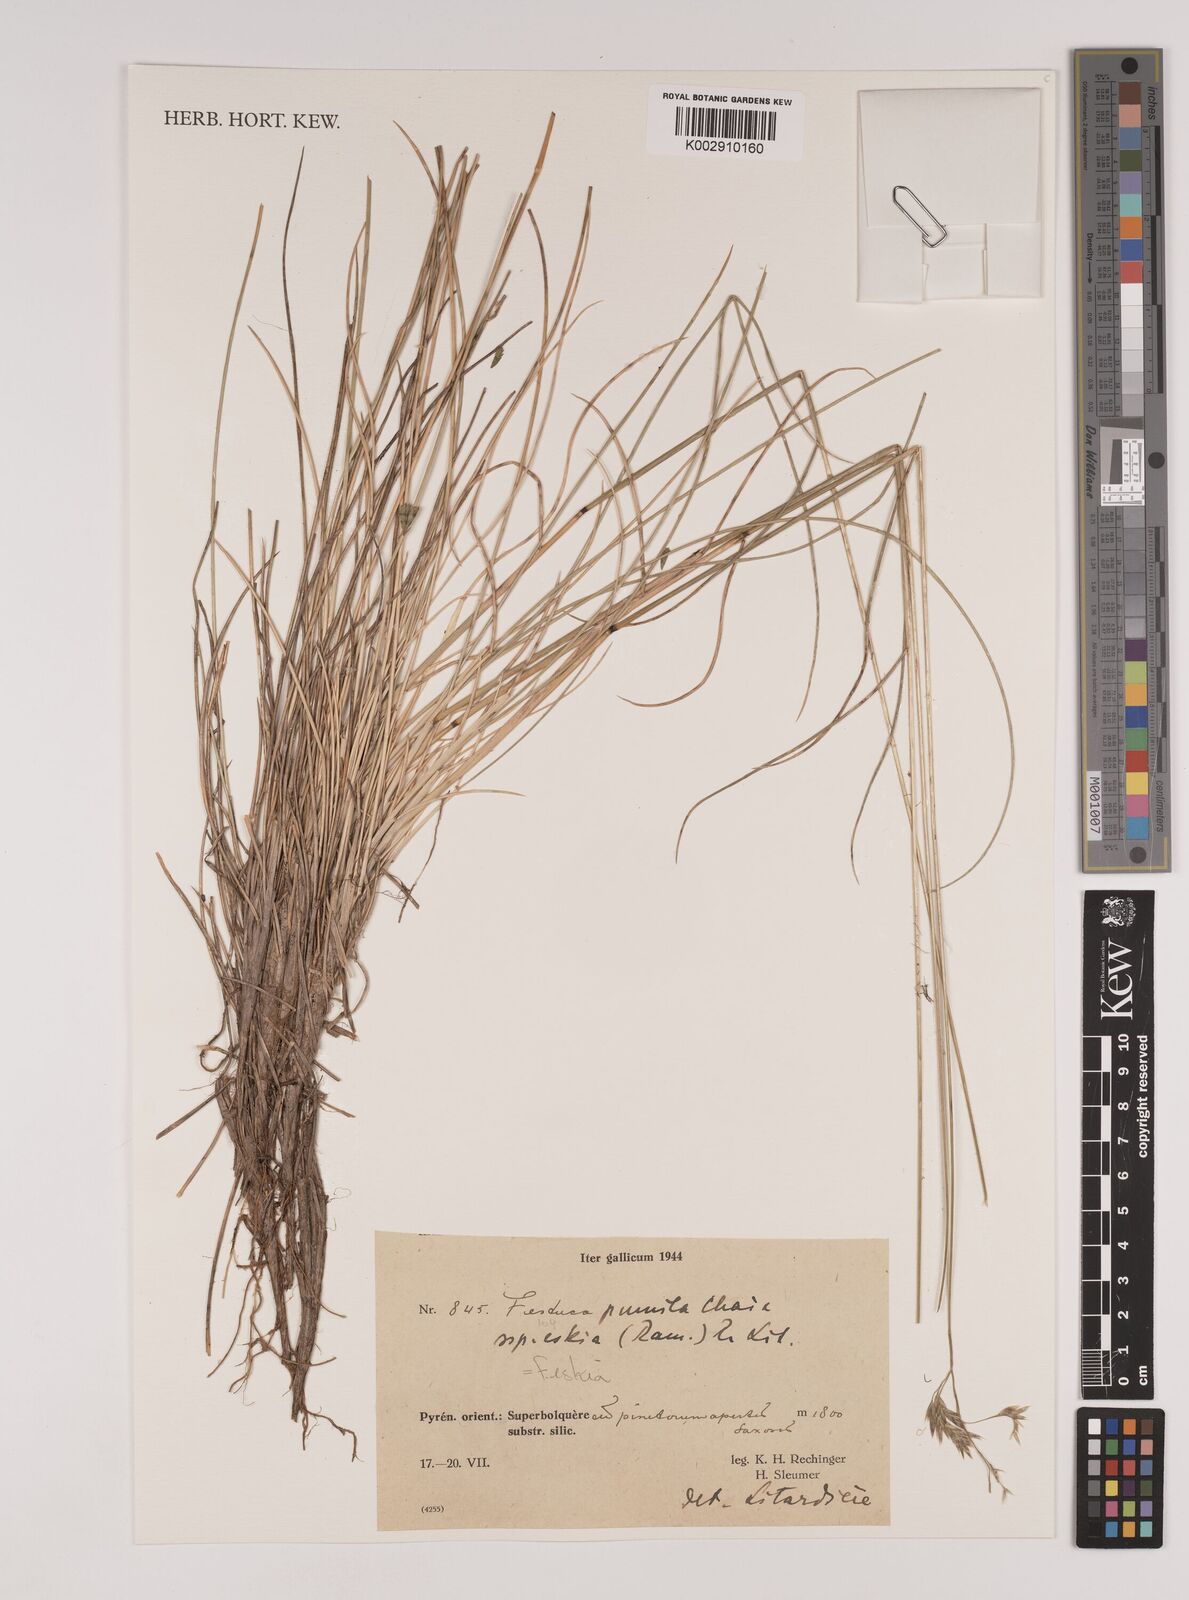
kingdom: Plantae
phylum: Tracheophyta
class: Liliopsida
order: Poales
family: Poaceae
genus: Festuca
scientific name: Festuca
